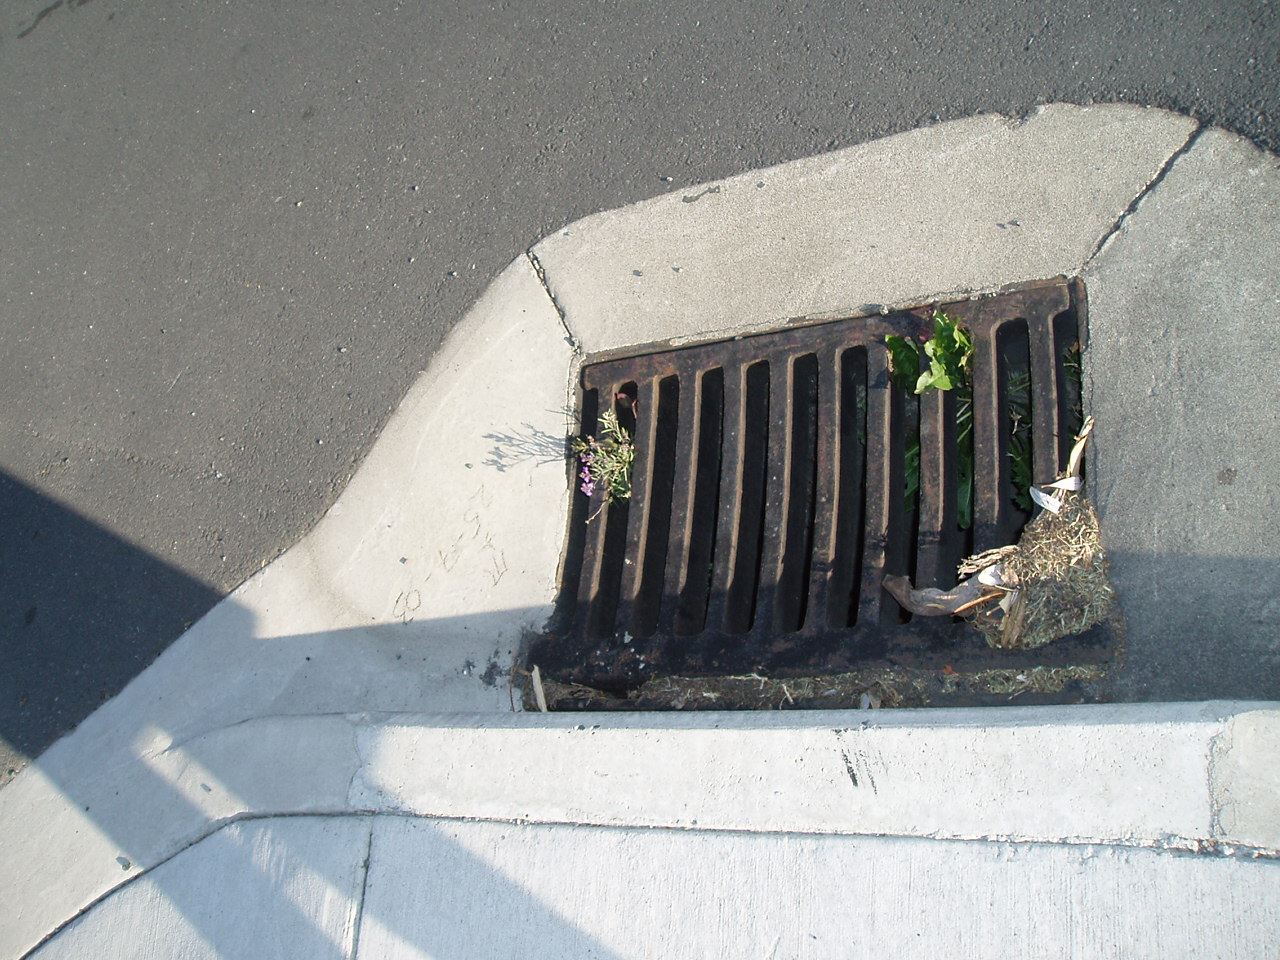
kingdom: Plantae
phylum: Tracheophyta
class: Magnoliopsida
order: Lamiales
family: Plantaginaceae
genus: Linaria
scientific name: Linaria purpurea
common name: Purple toadflax
